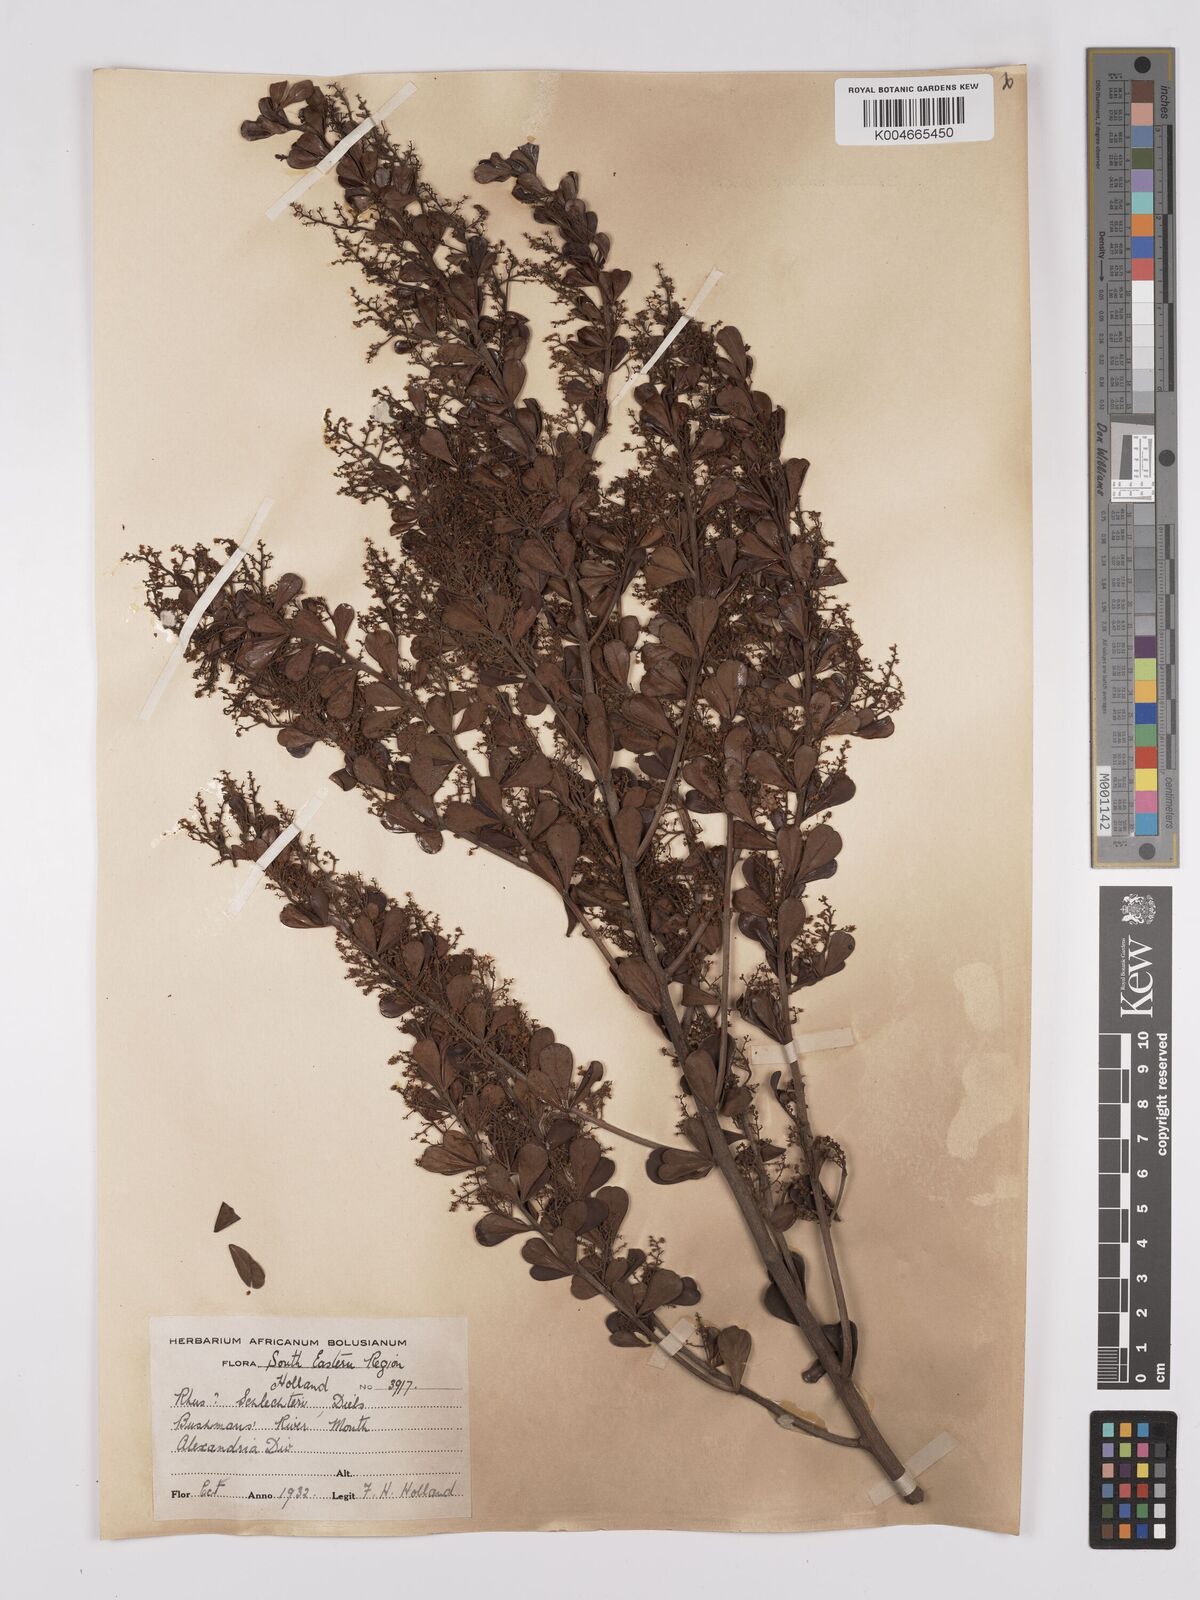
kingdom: Plantae
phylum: Tracheophyta
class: Magnoliopsida
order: Sapindales
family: Anacardiaceae
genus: Searsia
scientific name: Searsia lucida
